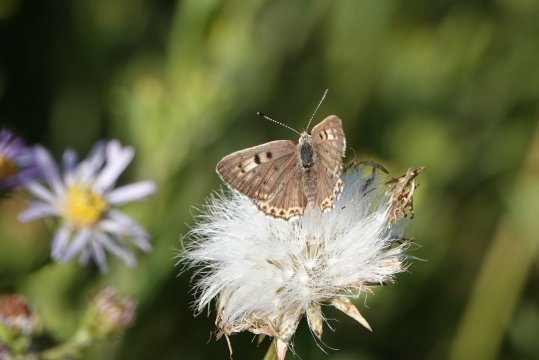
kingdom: Animalia
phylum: Arthropoda
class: Insecta
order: Lepidoptera
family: Lycaenidae
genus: Lycaena
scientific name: Lycaena editha
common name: Edith's Copper
